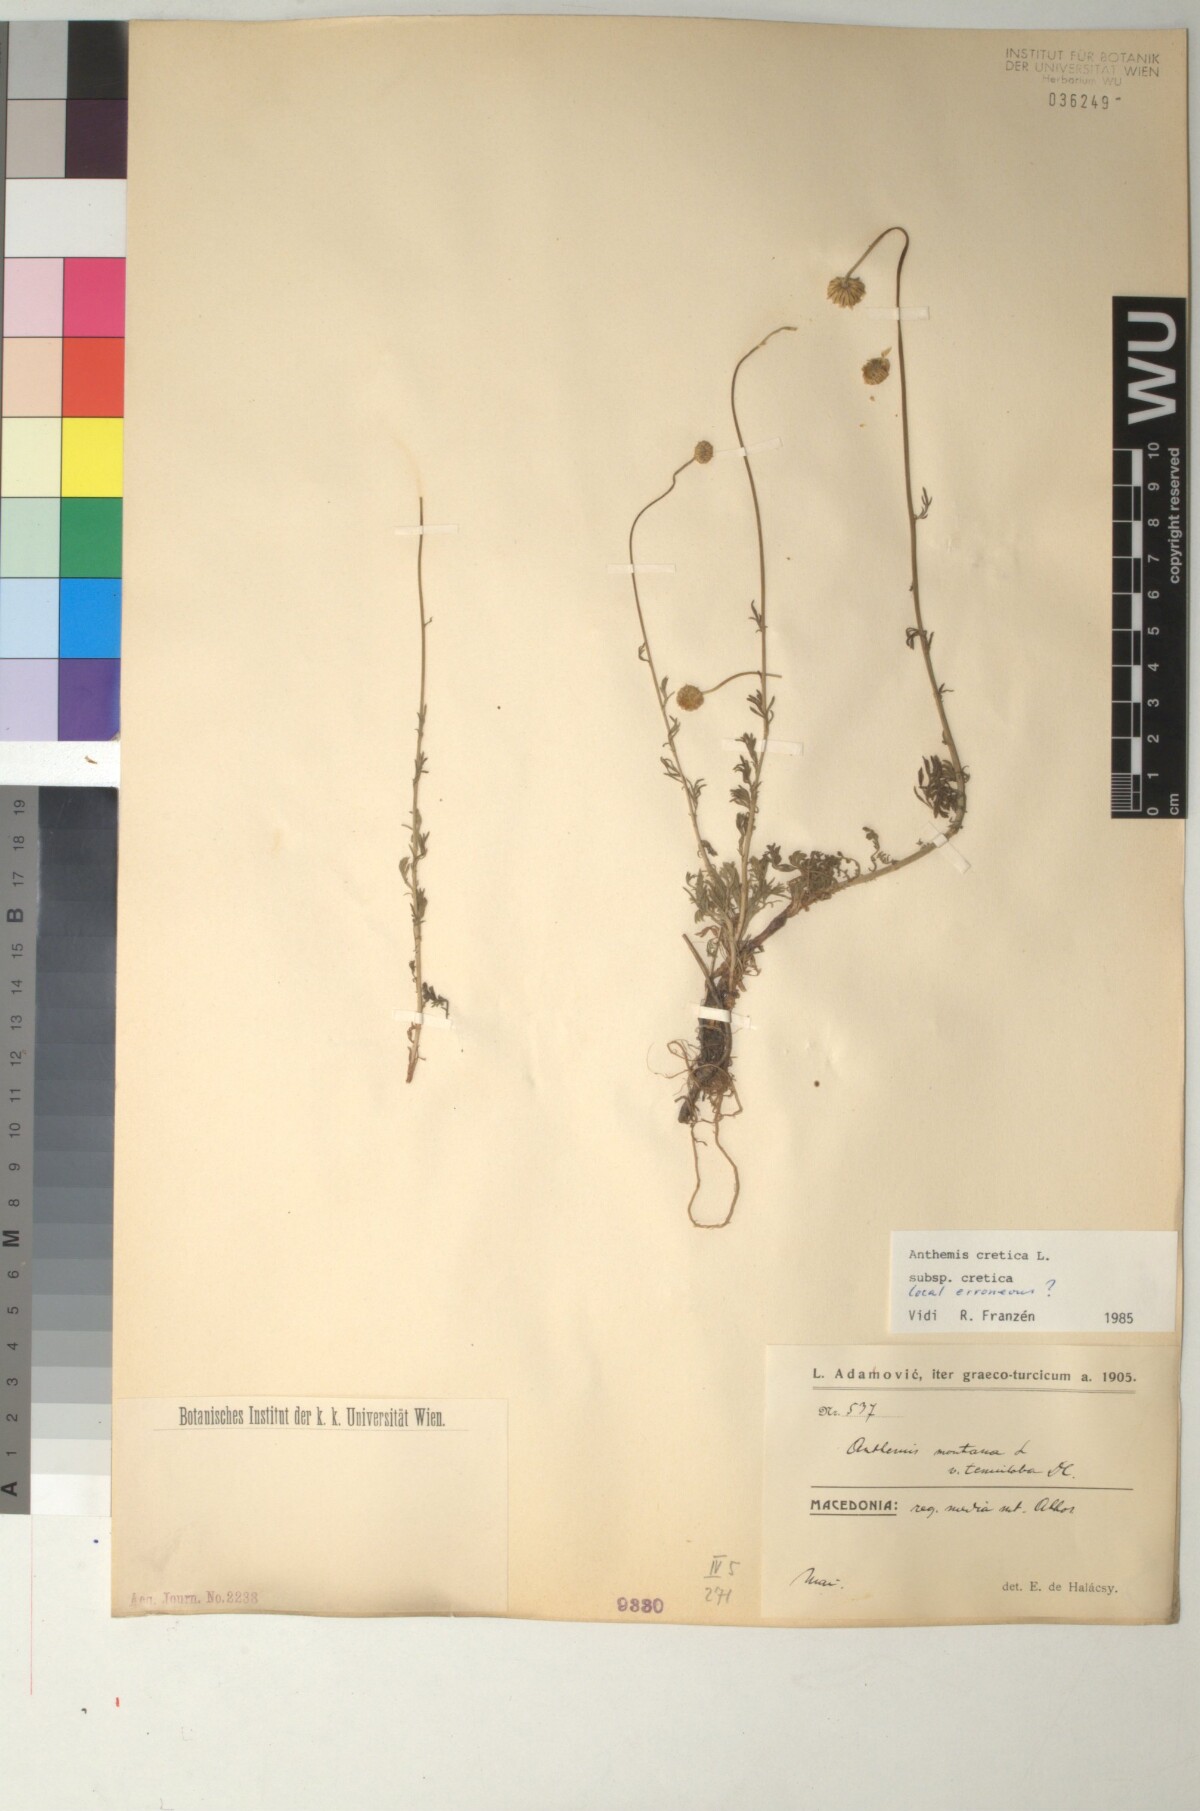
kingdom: Plantae
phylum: Tracheophyta
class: Magnoliopsida
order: Asterales
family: Asteraceae
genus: Anthemis
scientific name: Anthemis cretica
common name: Mountain dog-daisy
